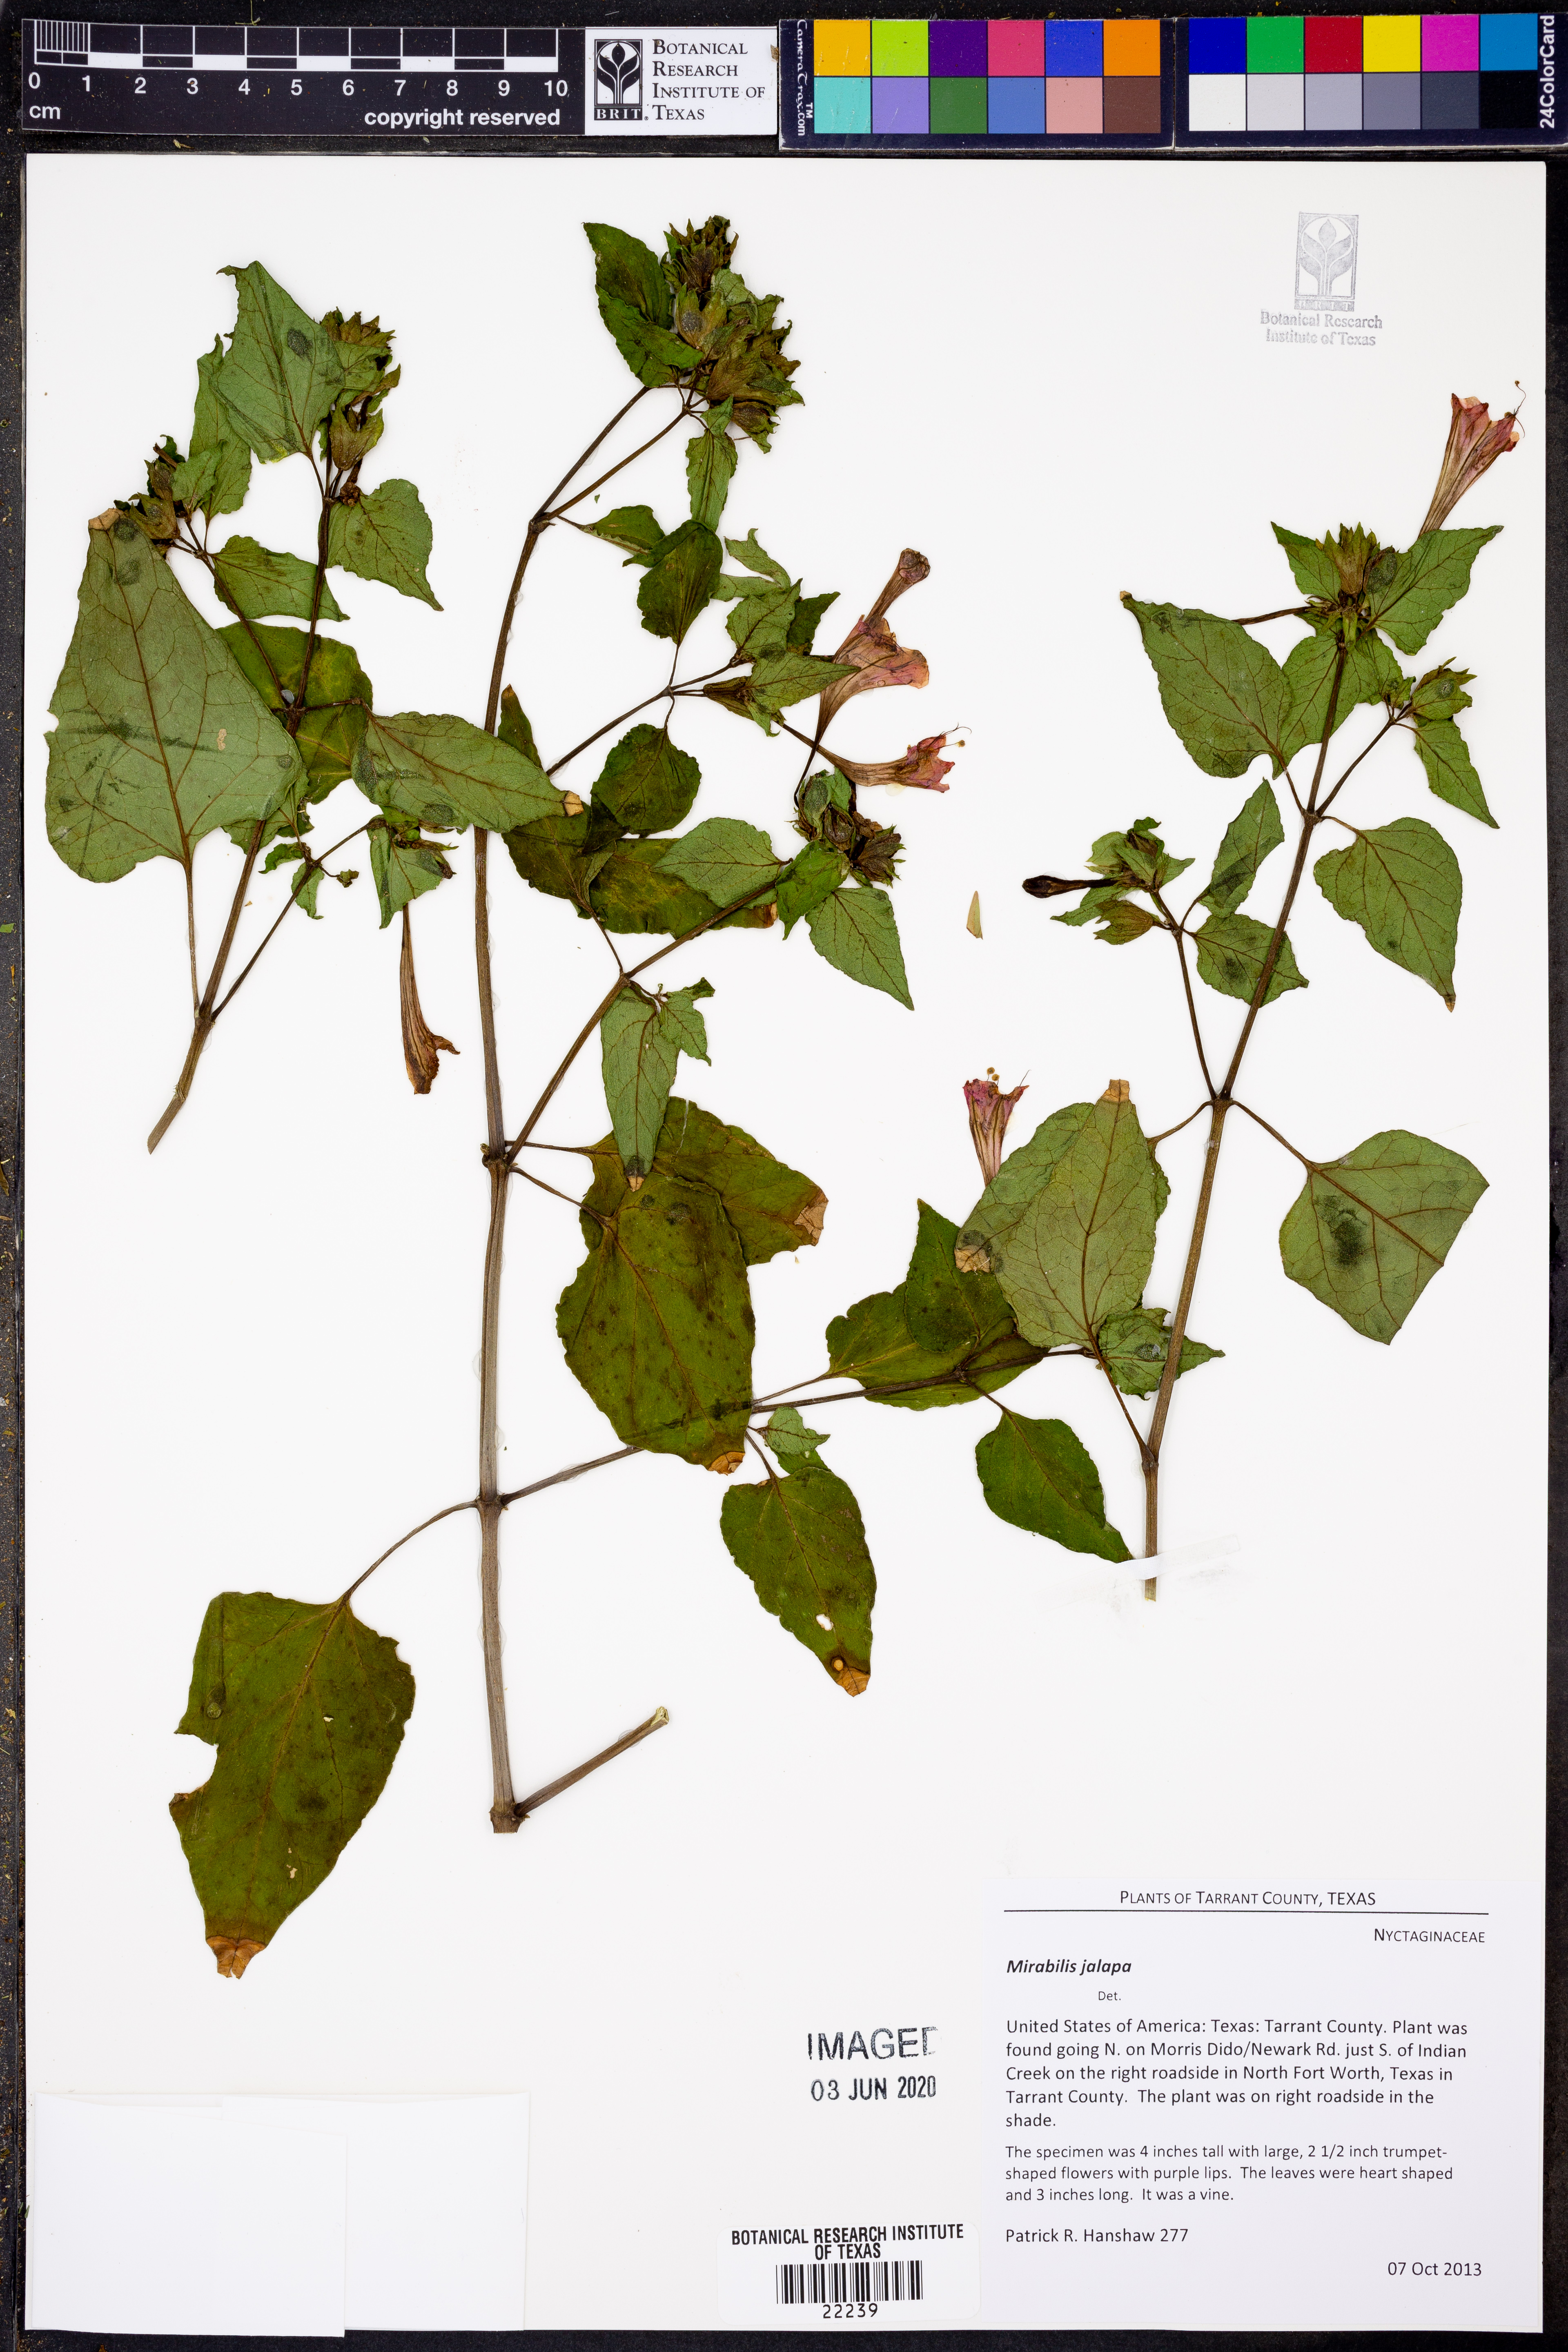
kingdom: Plantae
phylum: Tracheophyta
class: Magnoliopsida
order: Caryophyllales
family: Nyctaginaceae
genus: Mirabilis
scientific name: Mirabilis jalapa
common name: Marvel-of-peru
